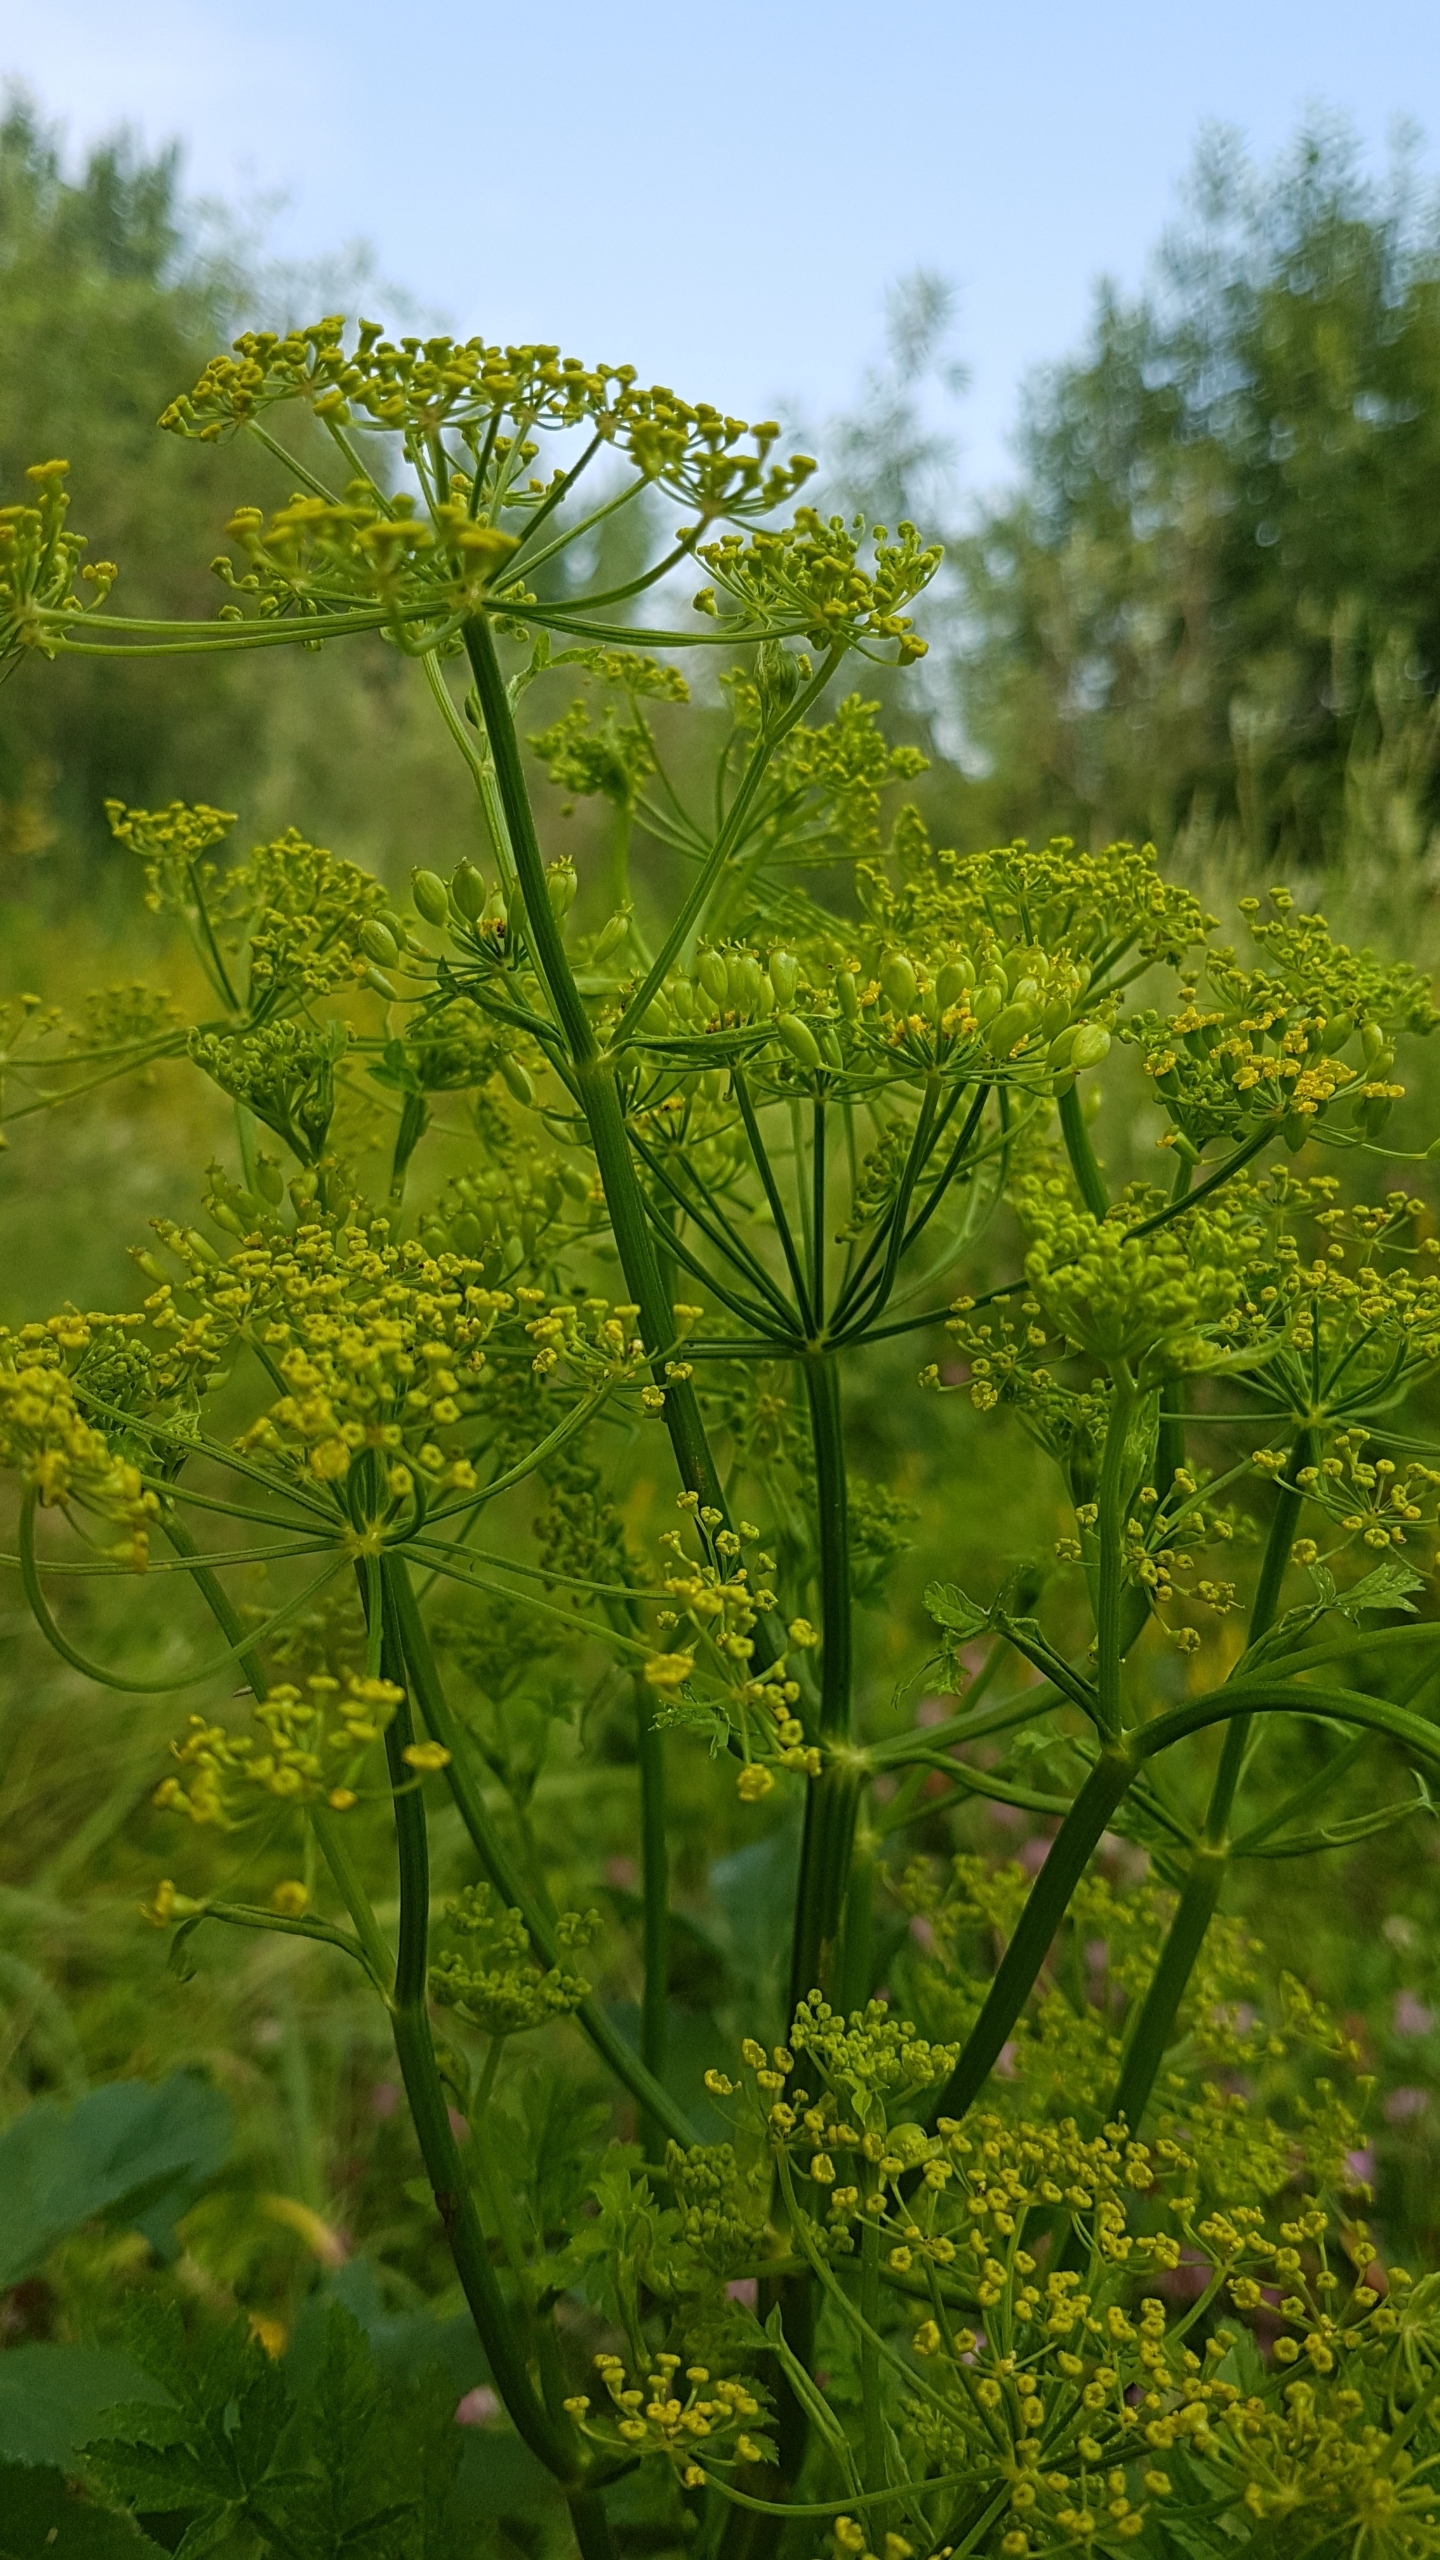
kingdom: Plantae
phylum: Tracheophyta
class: Magnoliopsida
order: Apiales
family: Apiaceae
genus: Pastinaca
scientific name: Pastinaca sativa
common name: Pastinak
